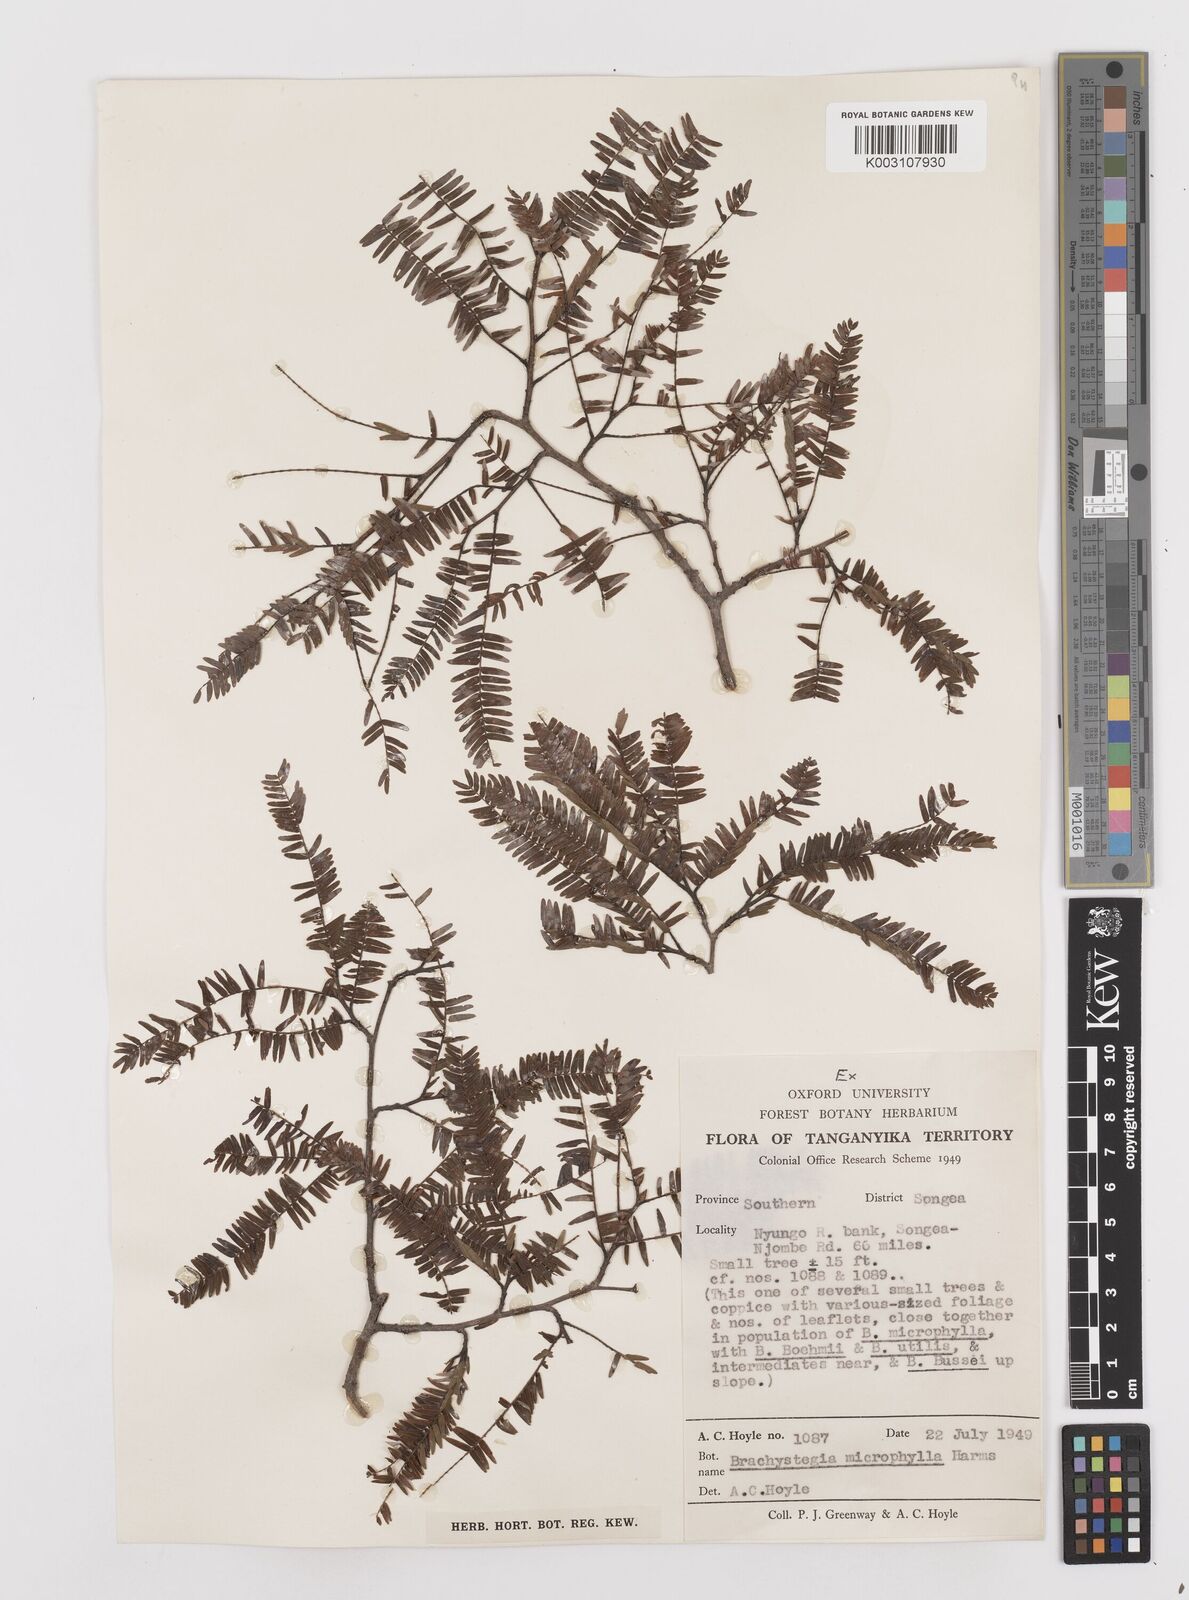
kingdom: Plantae
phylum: Tracheophyta
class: Magnoliopsida
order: Fabales
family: Fabaceae
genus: Brachystegia
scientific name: Brachystegia tamarindoides
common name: Mountain acacia
